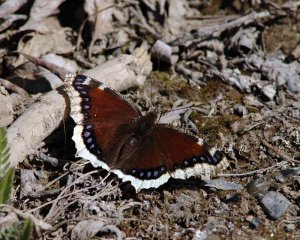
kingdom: Animalia
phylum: Arthropoda
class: Insecta
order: Lepidoptera
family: Nymphalidae
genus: Nymphalis
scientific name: Nymphalis antiopa
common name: Mourning Cloak
